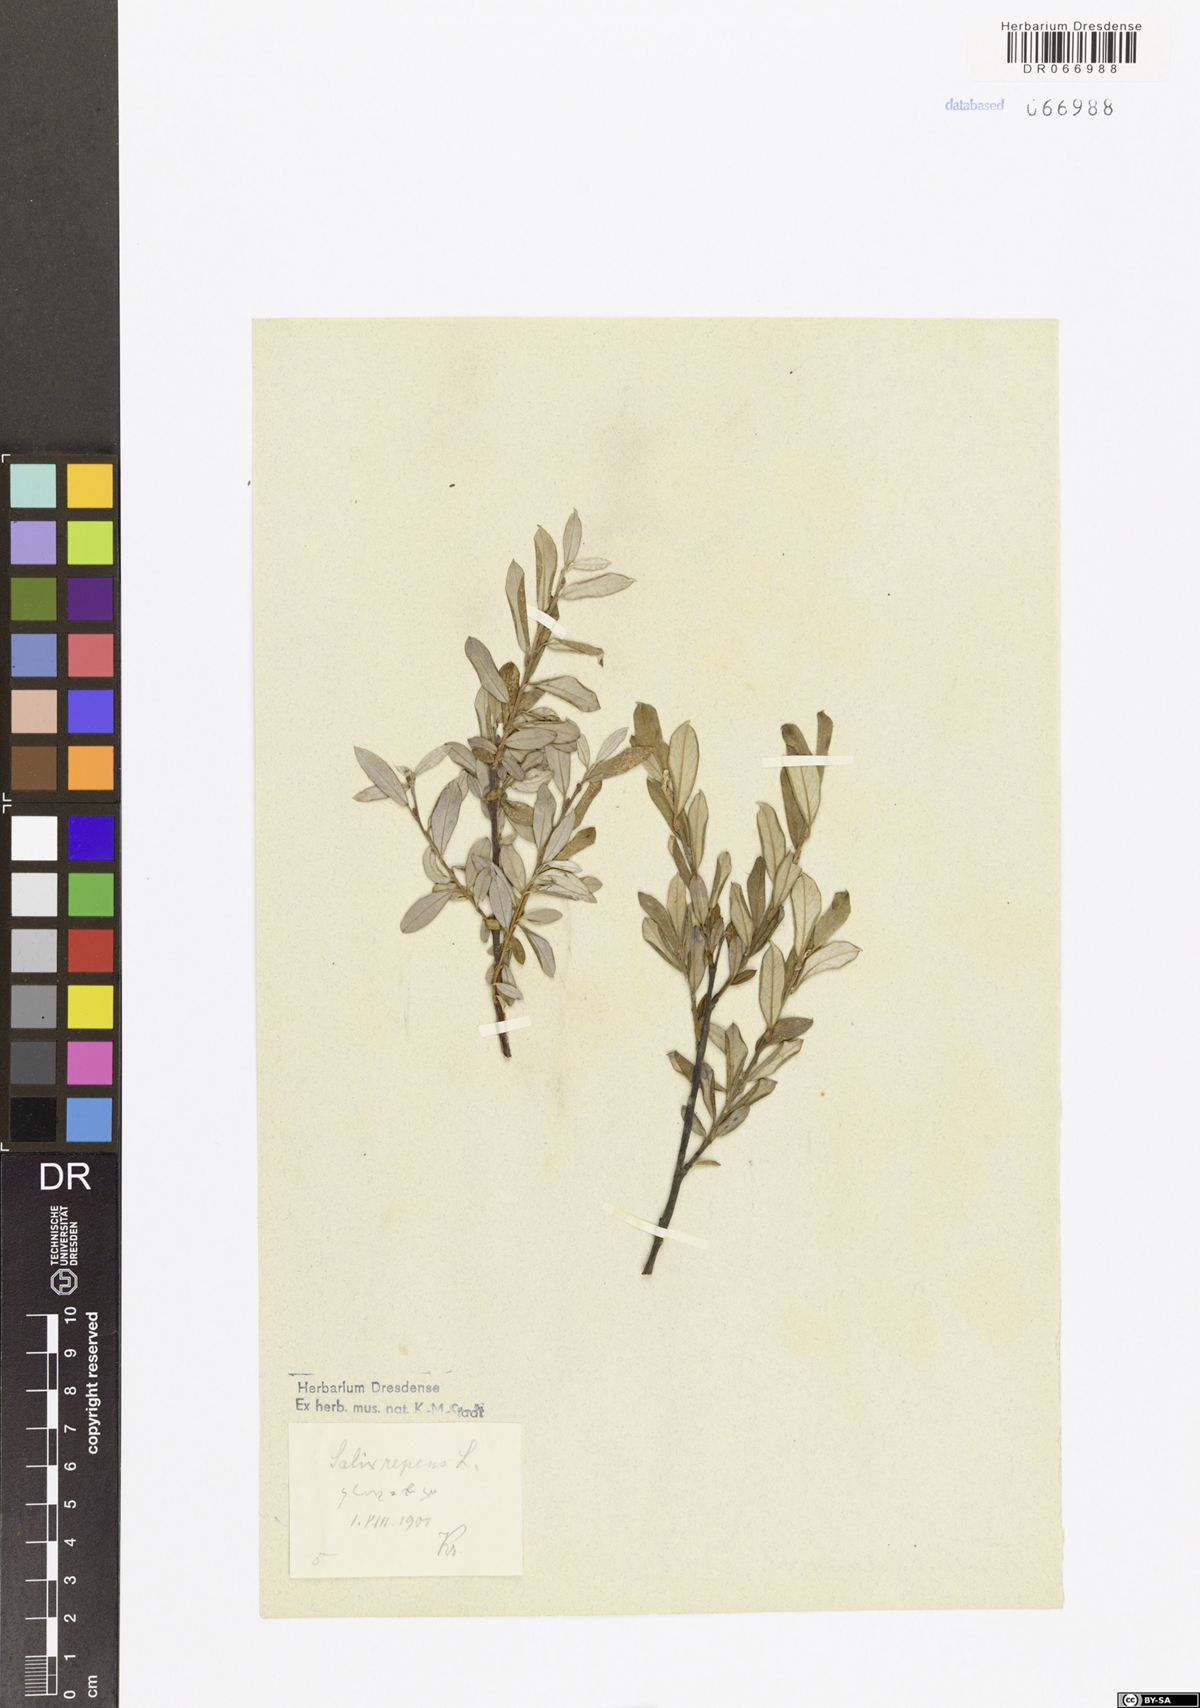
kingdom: Plantae
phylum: Tracheophyta
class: Magnoliopsida
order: Malpighiales
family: Salicaceae
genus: Salix
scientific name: Salix repens
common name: Creeping willow
